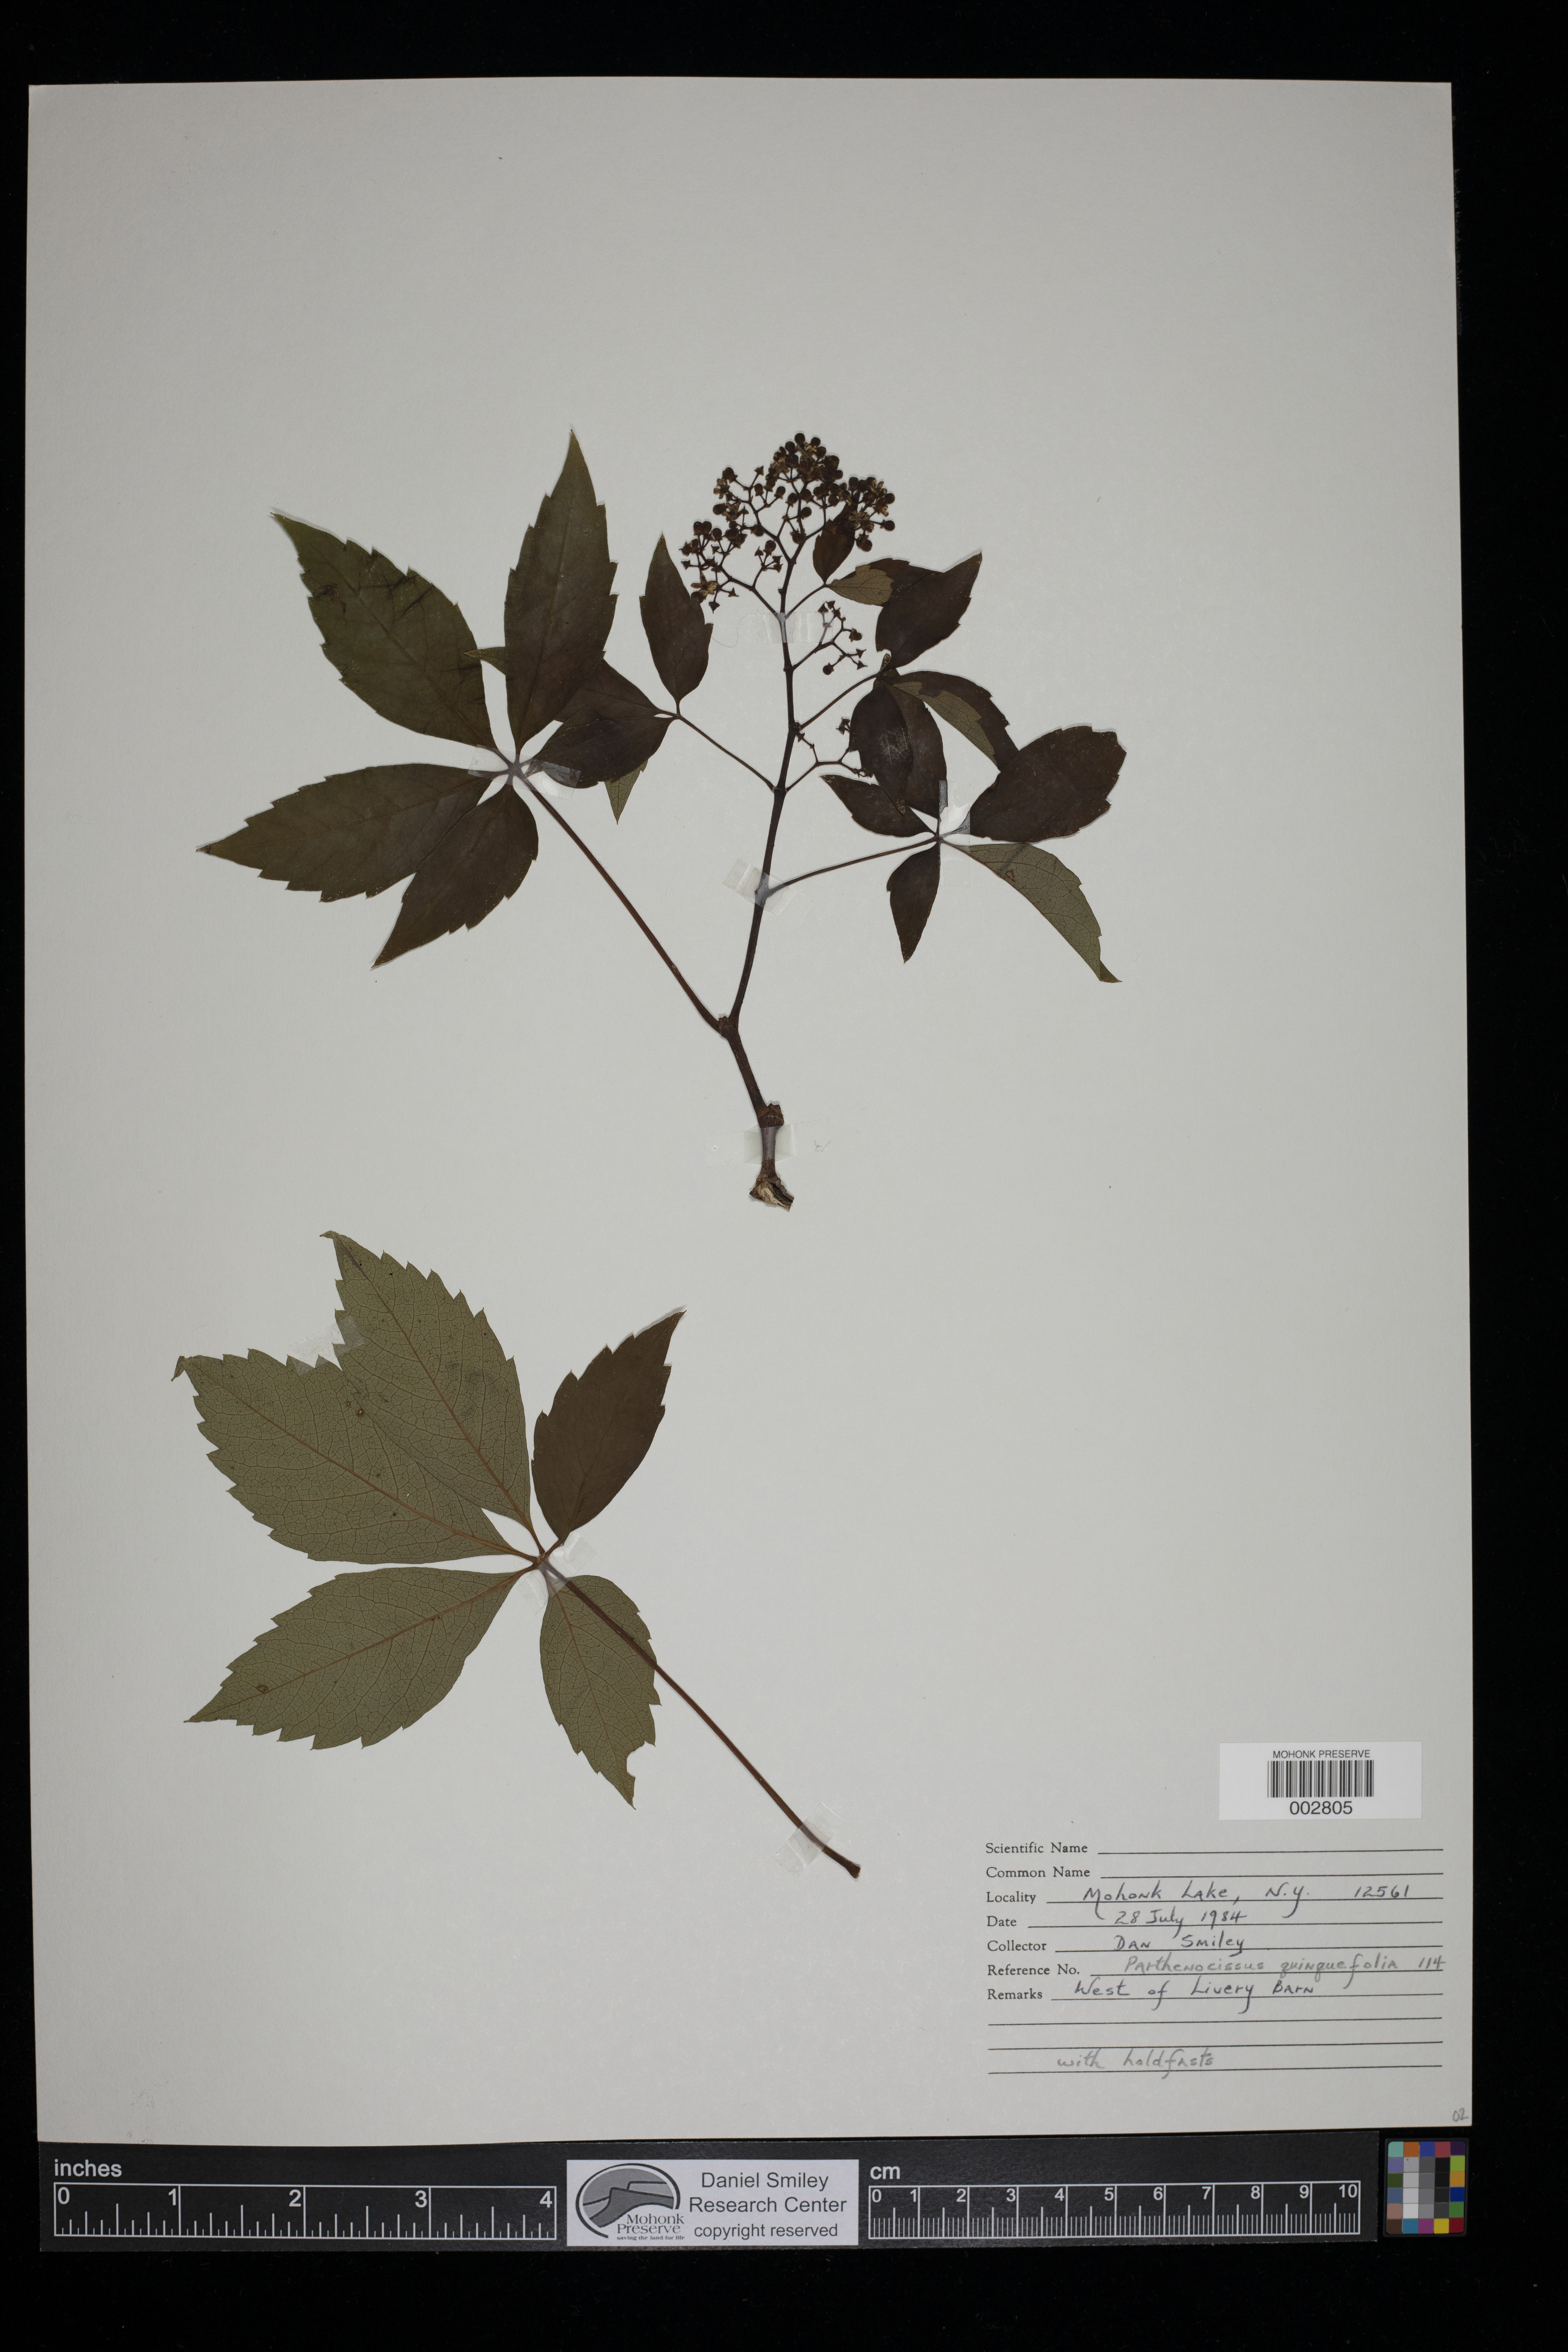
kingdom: Plantae
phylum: Tracheophyta
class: Magnoliopsida
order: Vitales
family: Vitaceae
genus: Parthenocissus
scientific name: Parthenocissus quinquefolia
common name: Virginia-creeper
